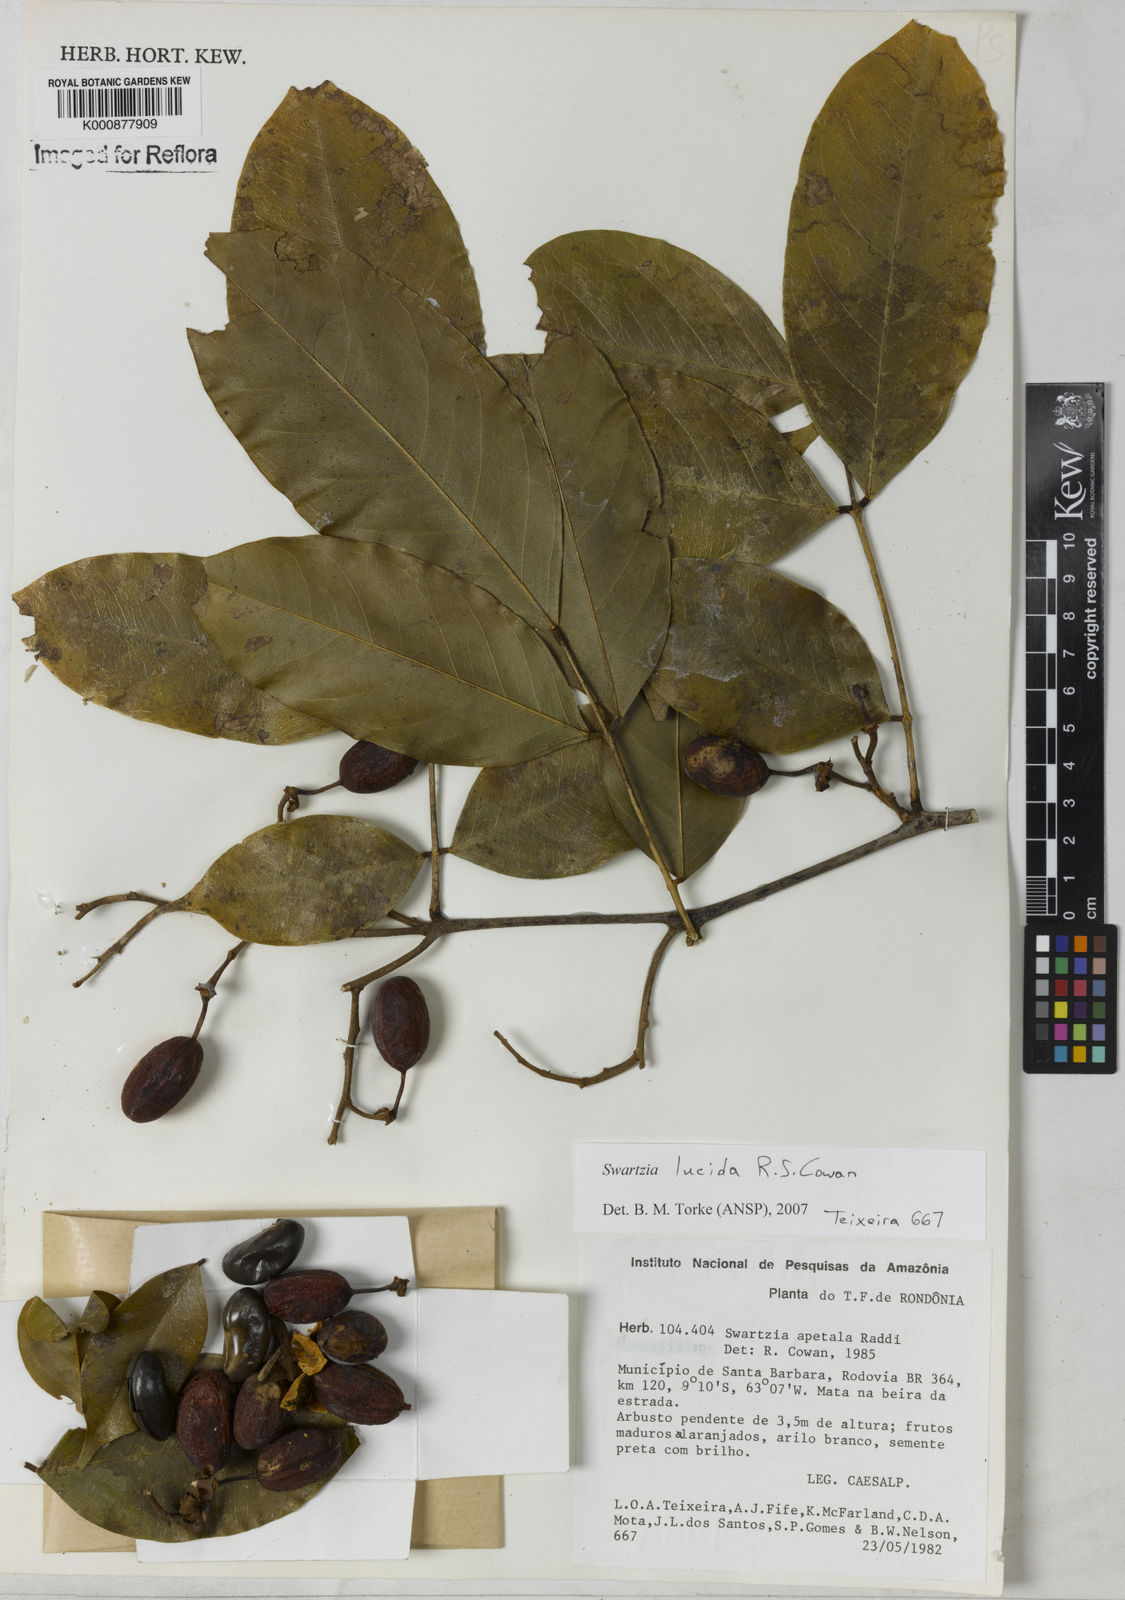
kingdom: Plantae
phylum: Tracheophyta
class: Magnoliopsida
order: Fabales
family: Fabaceae
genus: Swartzia
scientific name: Swartzia lucida
